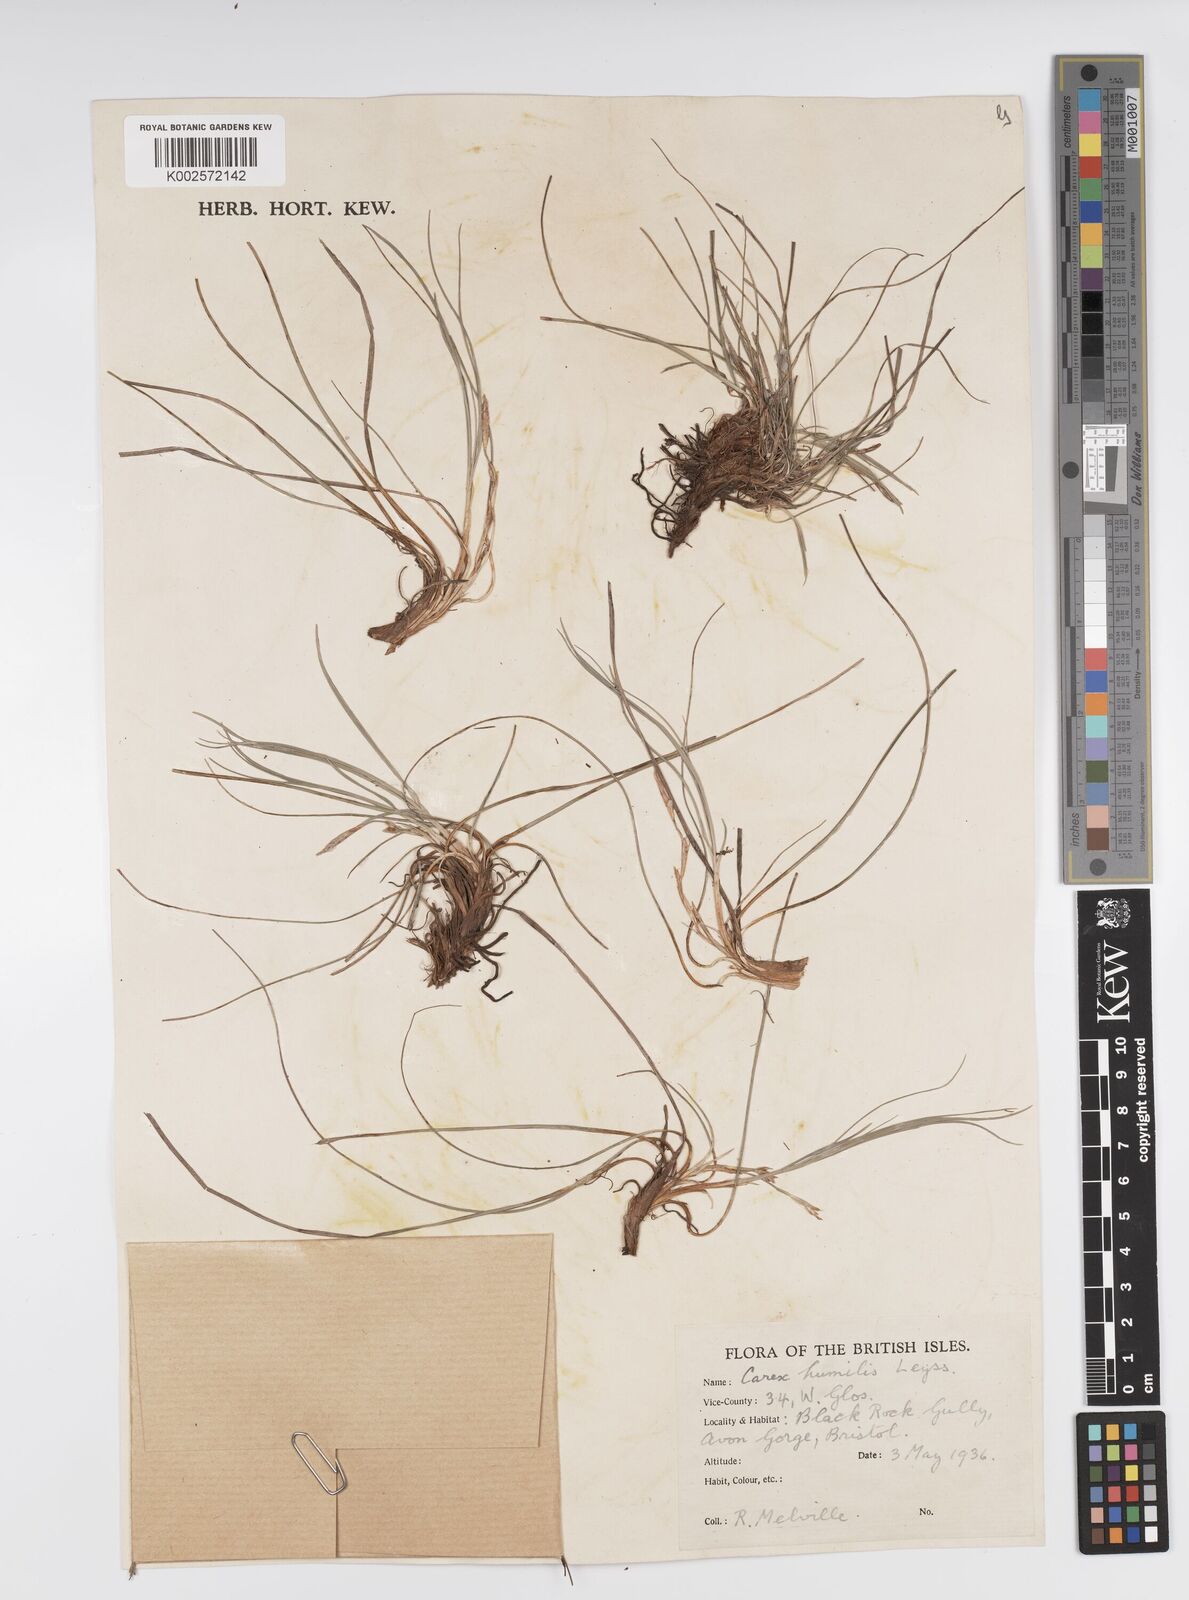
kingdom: Plantae
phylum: Tracheophyta
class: Liliopsida
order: Poales
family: Cyperaceae
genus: Carex
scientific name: Carex humilis
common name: Dwarf sedge
